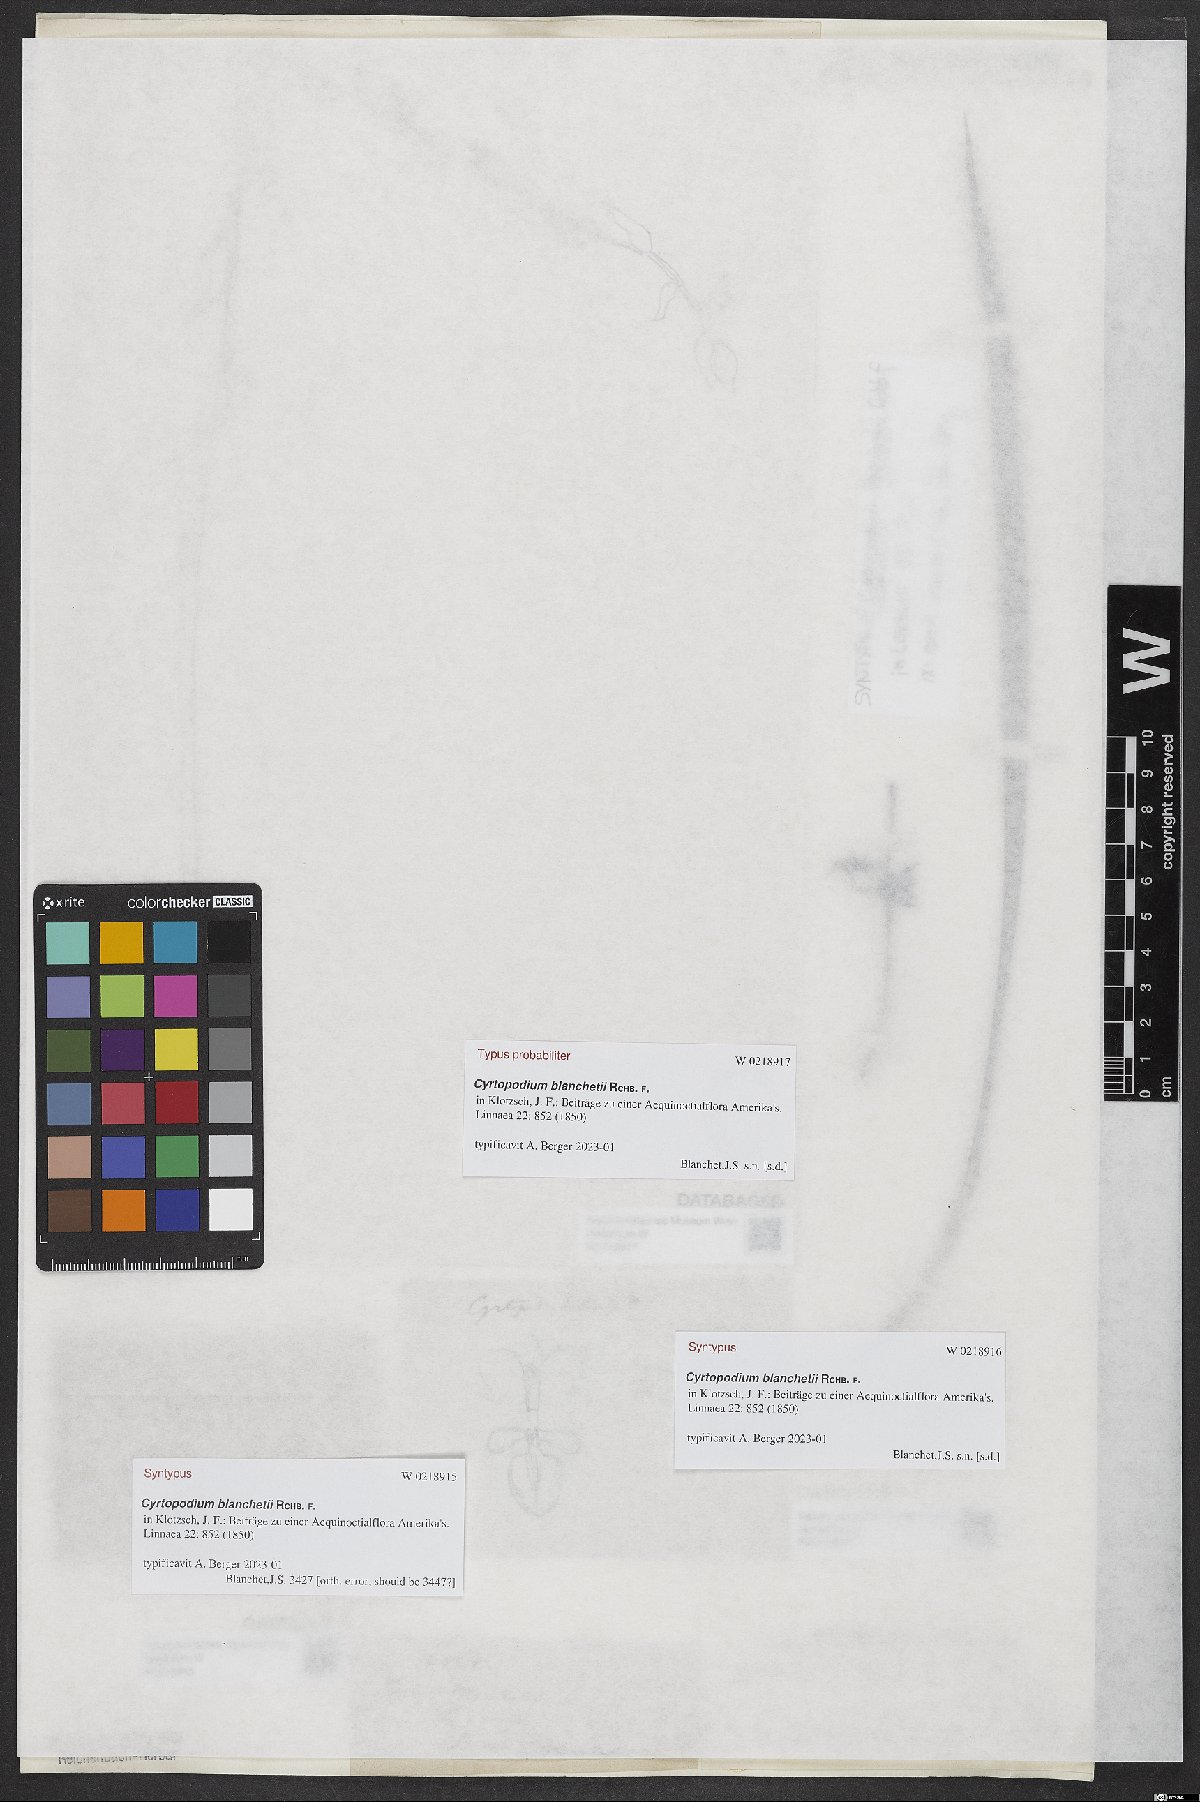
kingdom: Plantae
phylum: Tracheophyta
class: Liliopsida
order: Asparagales
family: Orchidaceae
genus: Cyrtopodium
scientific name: Cyrtopodium blanchetii
